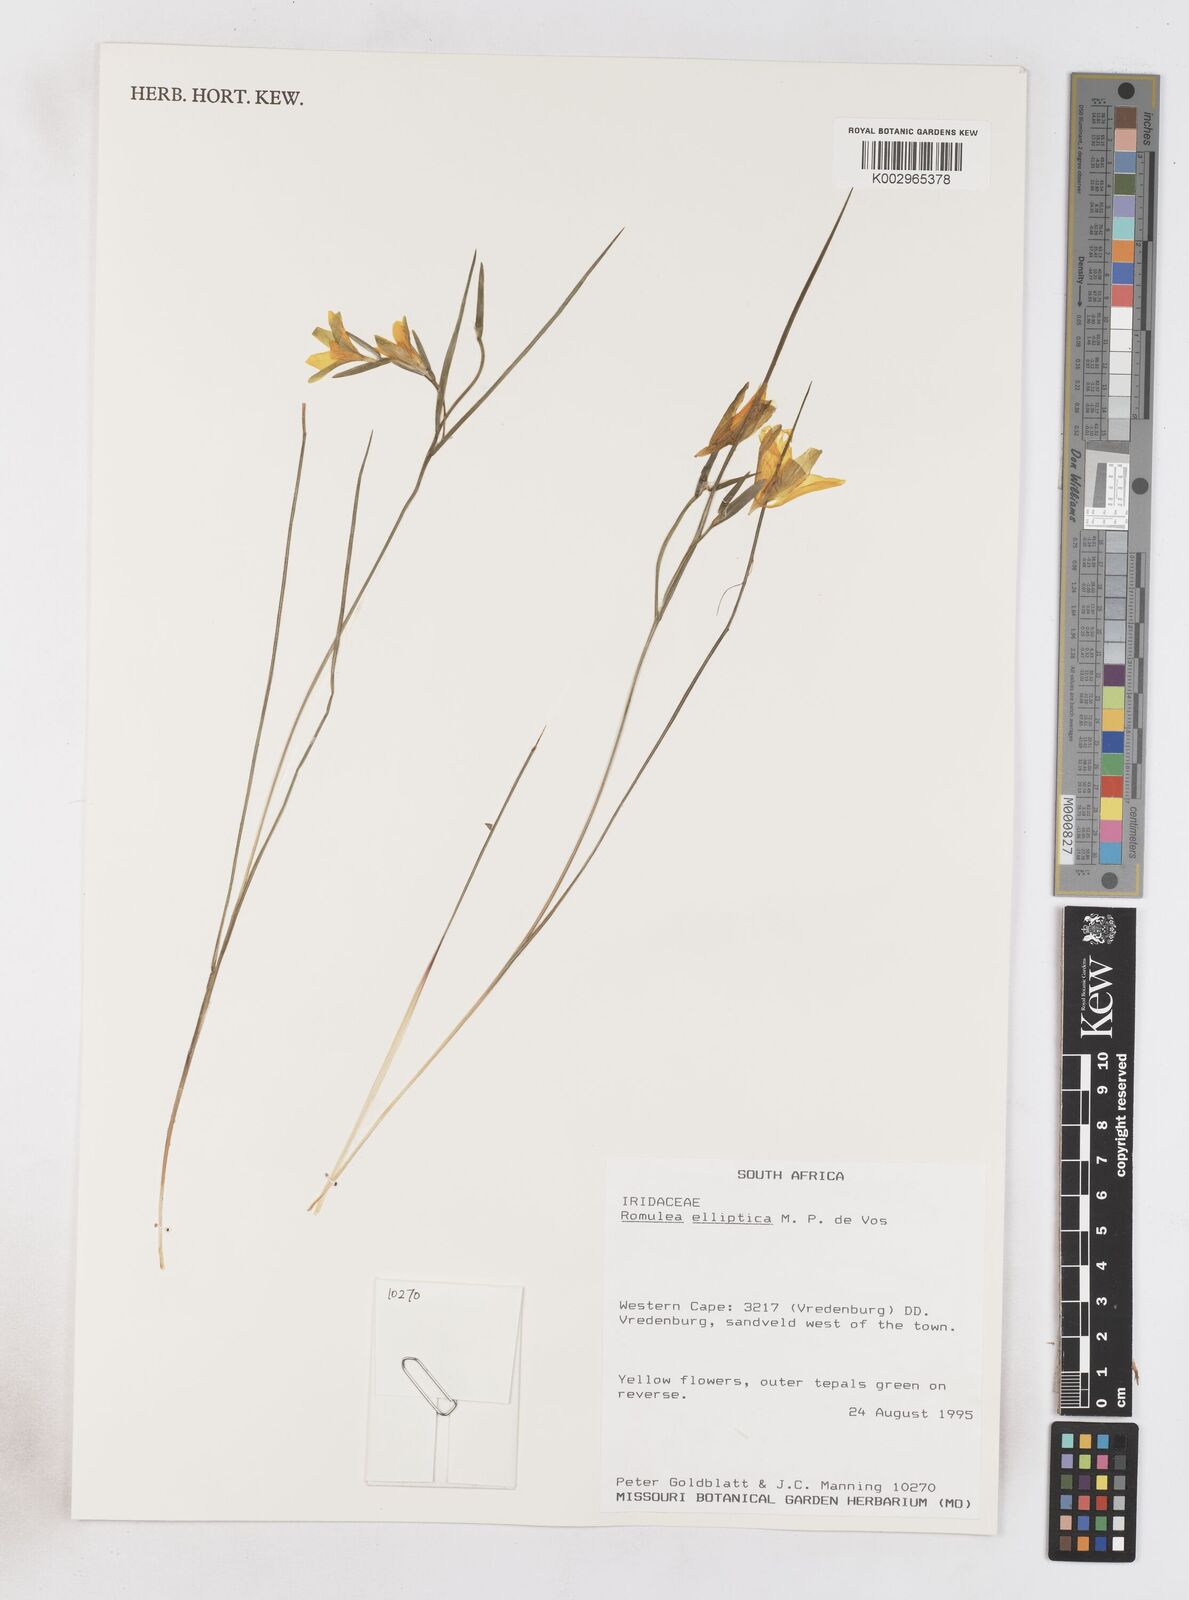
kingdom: Plantae
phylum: Tracheophyta
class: Liliopsida
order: Asparagales
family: Iridaceae
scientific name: Iridaceae
